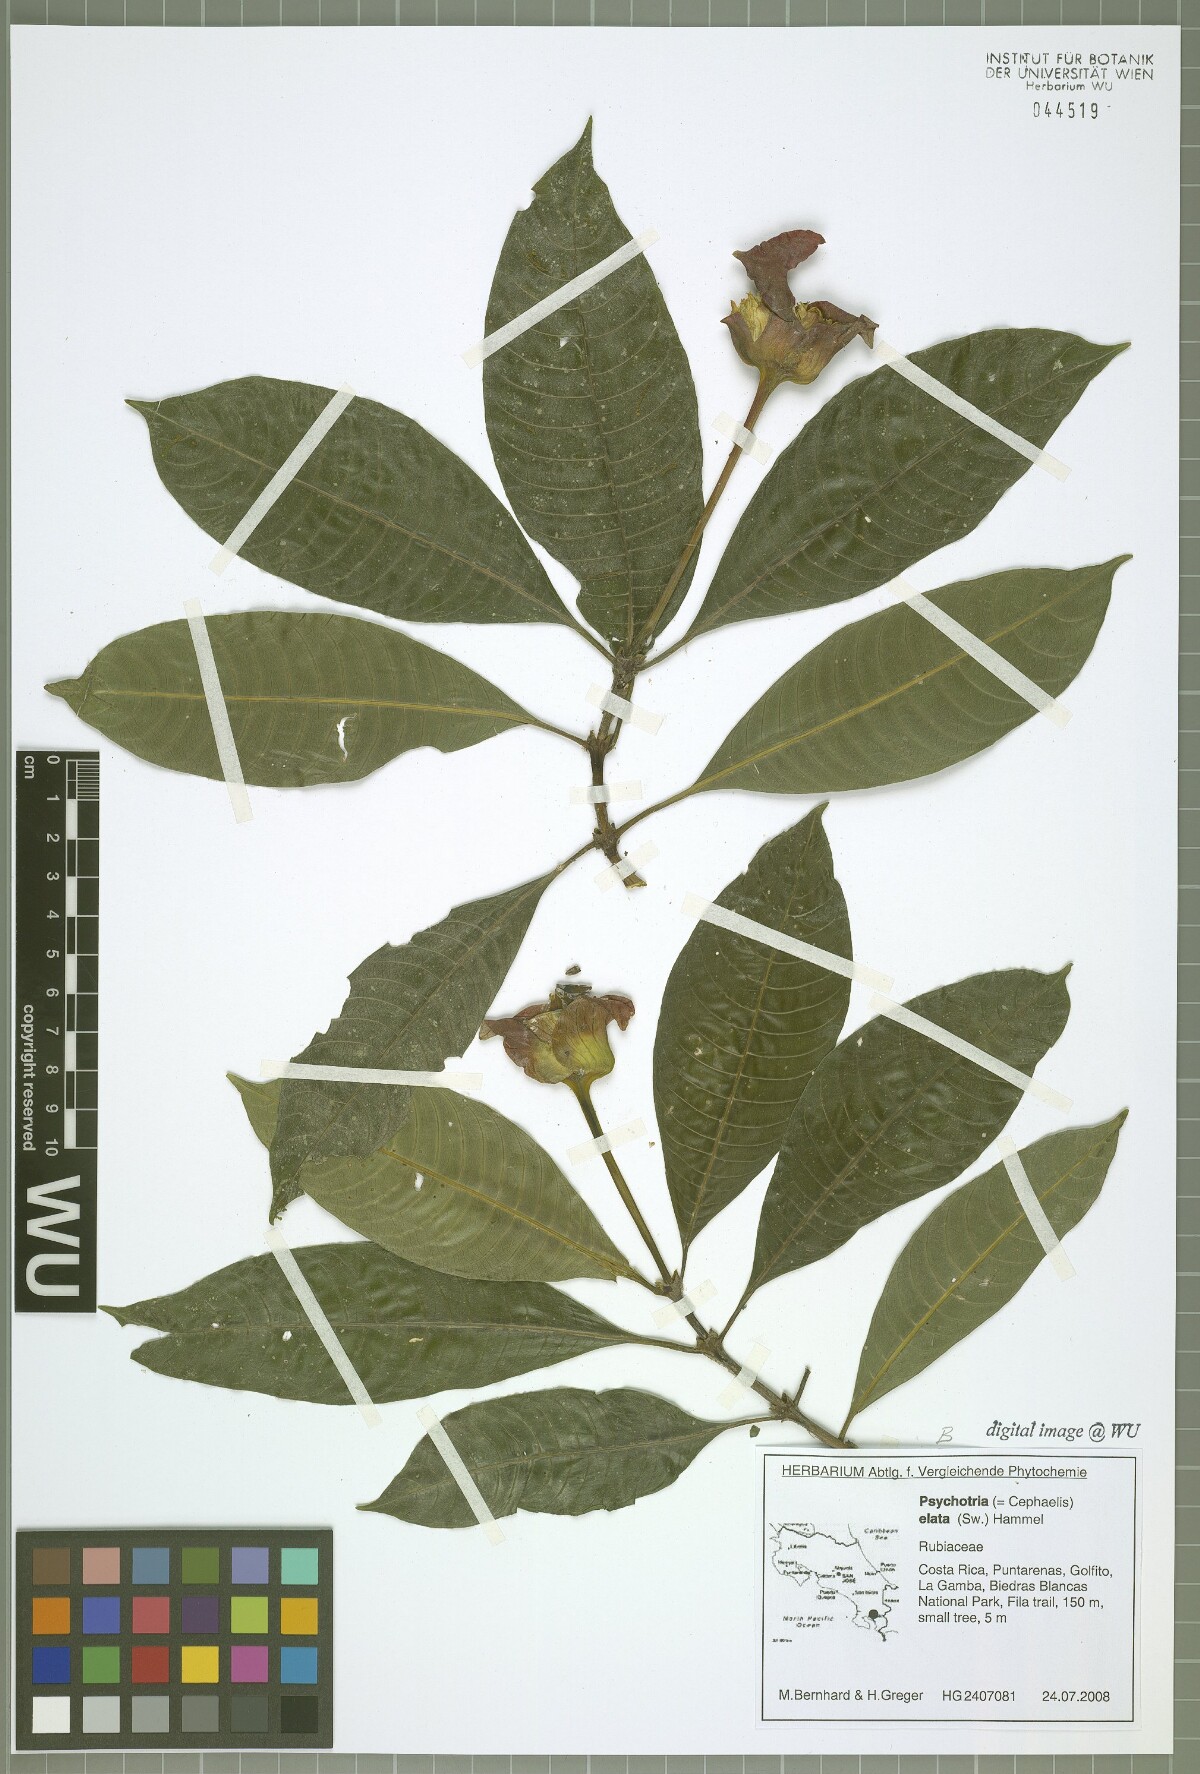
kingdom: Plantae
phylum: Tracheophyta
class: Magnoliopsida
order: Gentianales
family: Rubiaceae
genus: Palicourea
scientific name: Palicourea elata
